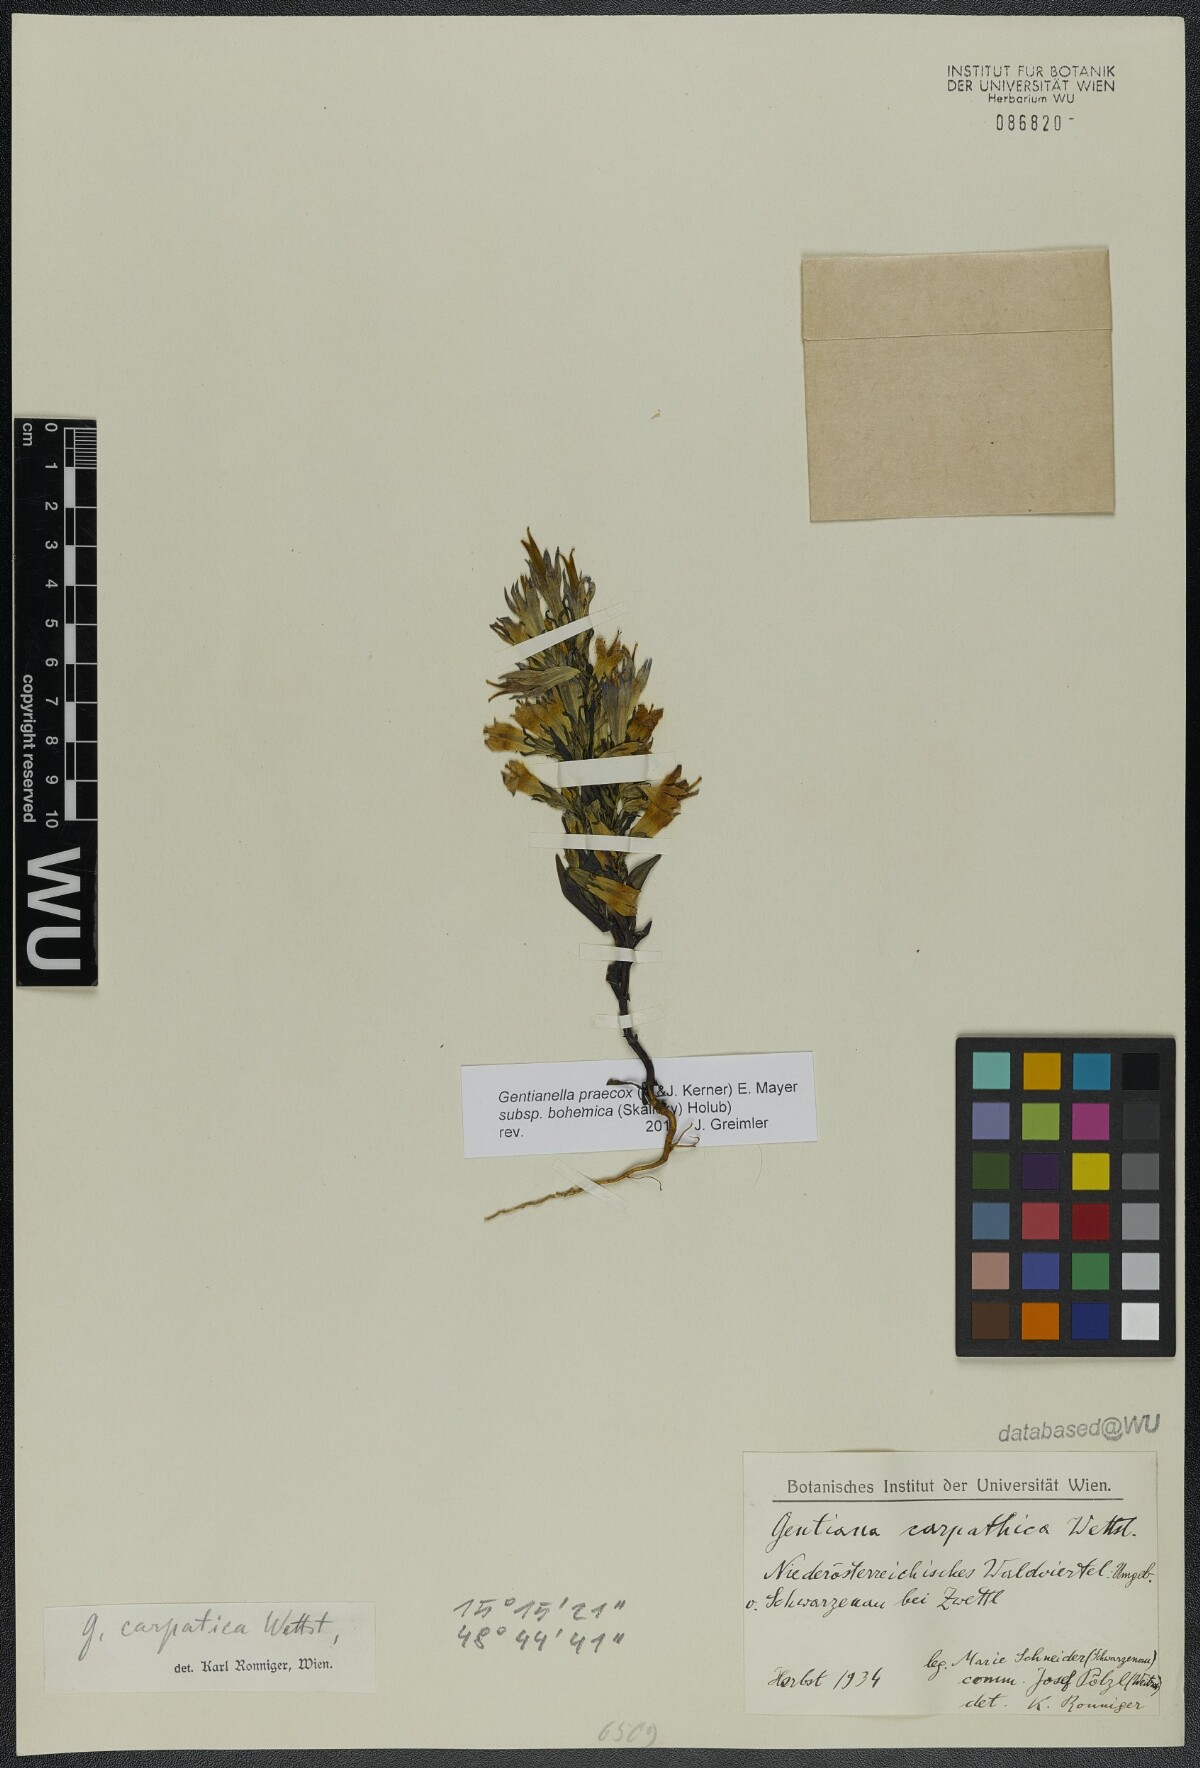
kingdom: Plantae
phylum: Tracheophyta
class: Magnoliopsida
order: Gentianales
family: Gentianaceae
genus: Gentianella
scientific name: Gentianella praecox
